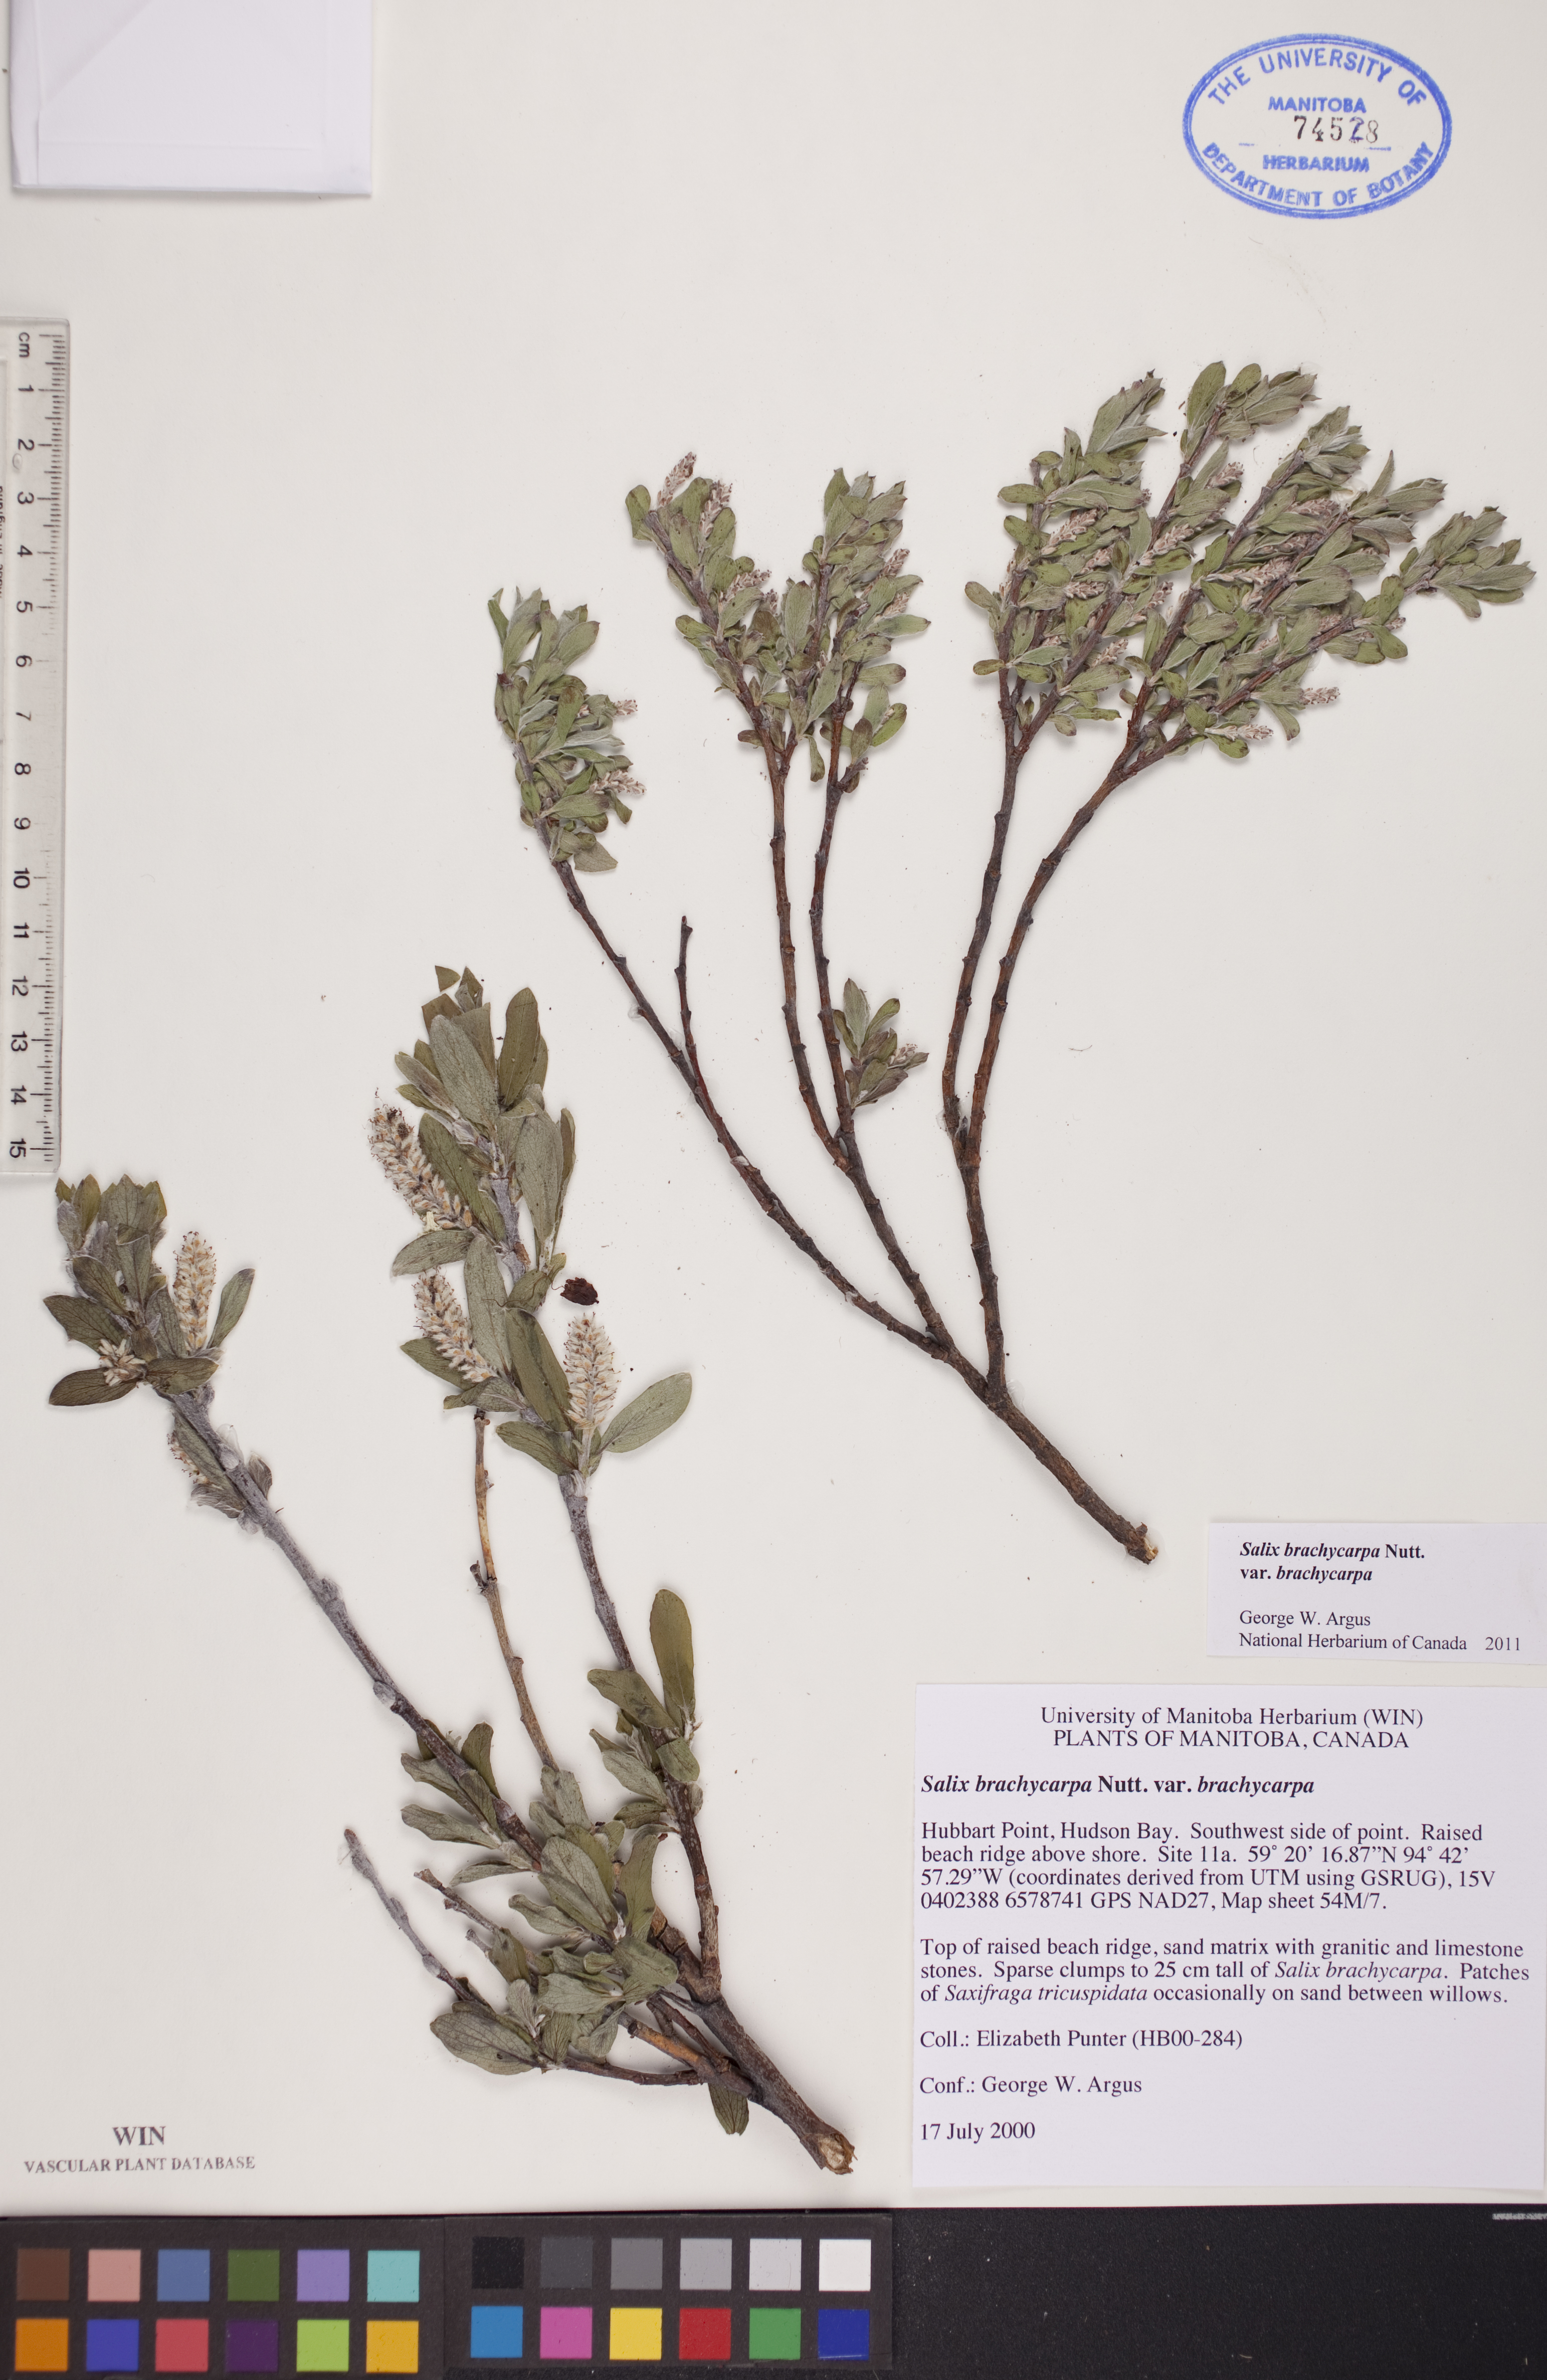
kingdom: Plantae
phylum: Tracheophyta
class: Magnoliopsida
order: Malpighiales
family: Salicaceae
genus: Salix
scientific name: Salix brachycarpa
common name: Barren-ground willow
